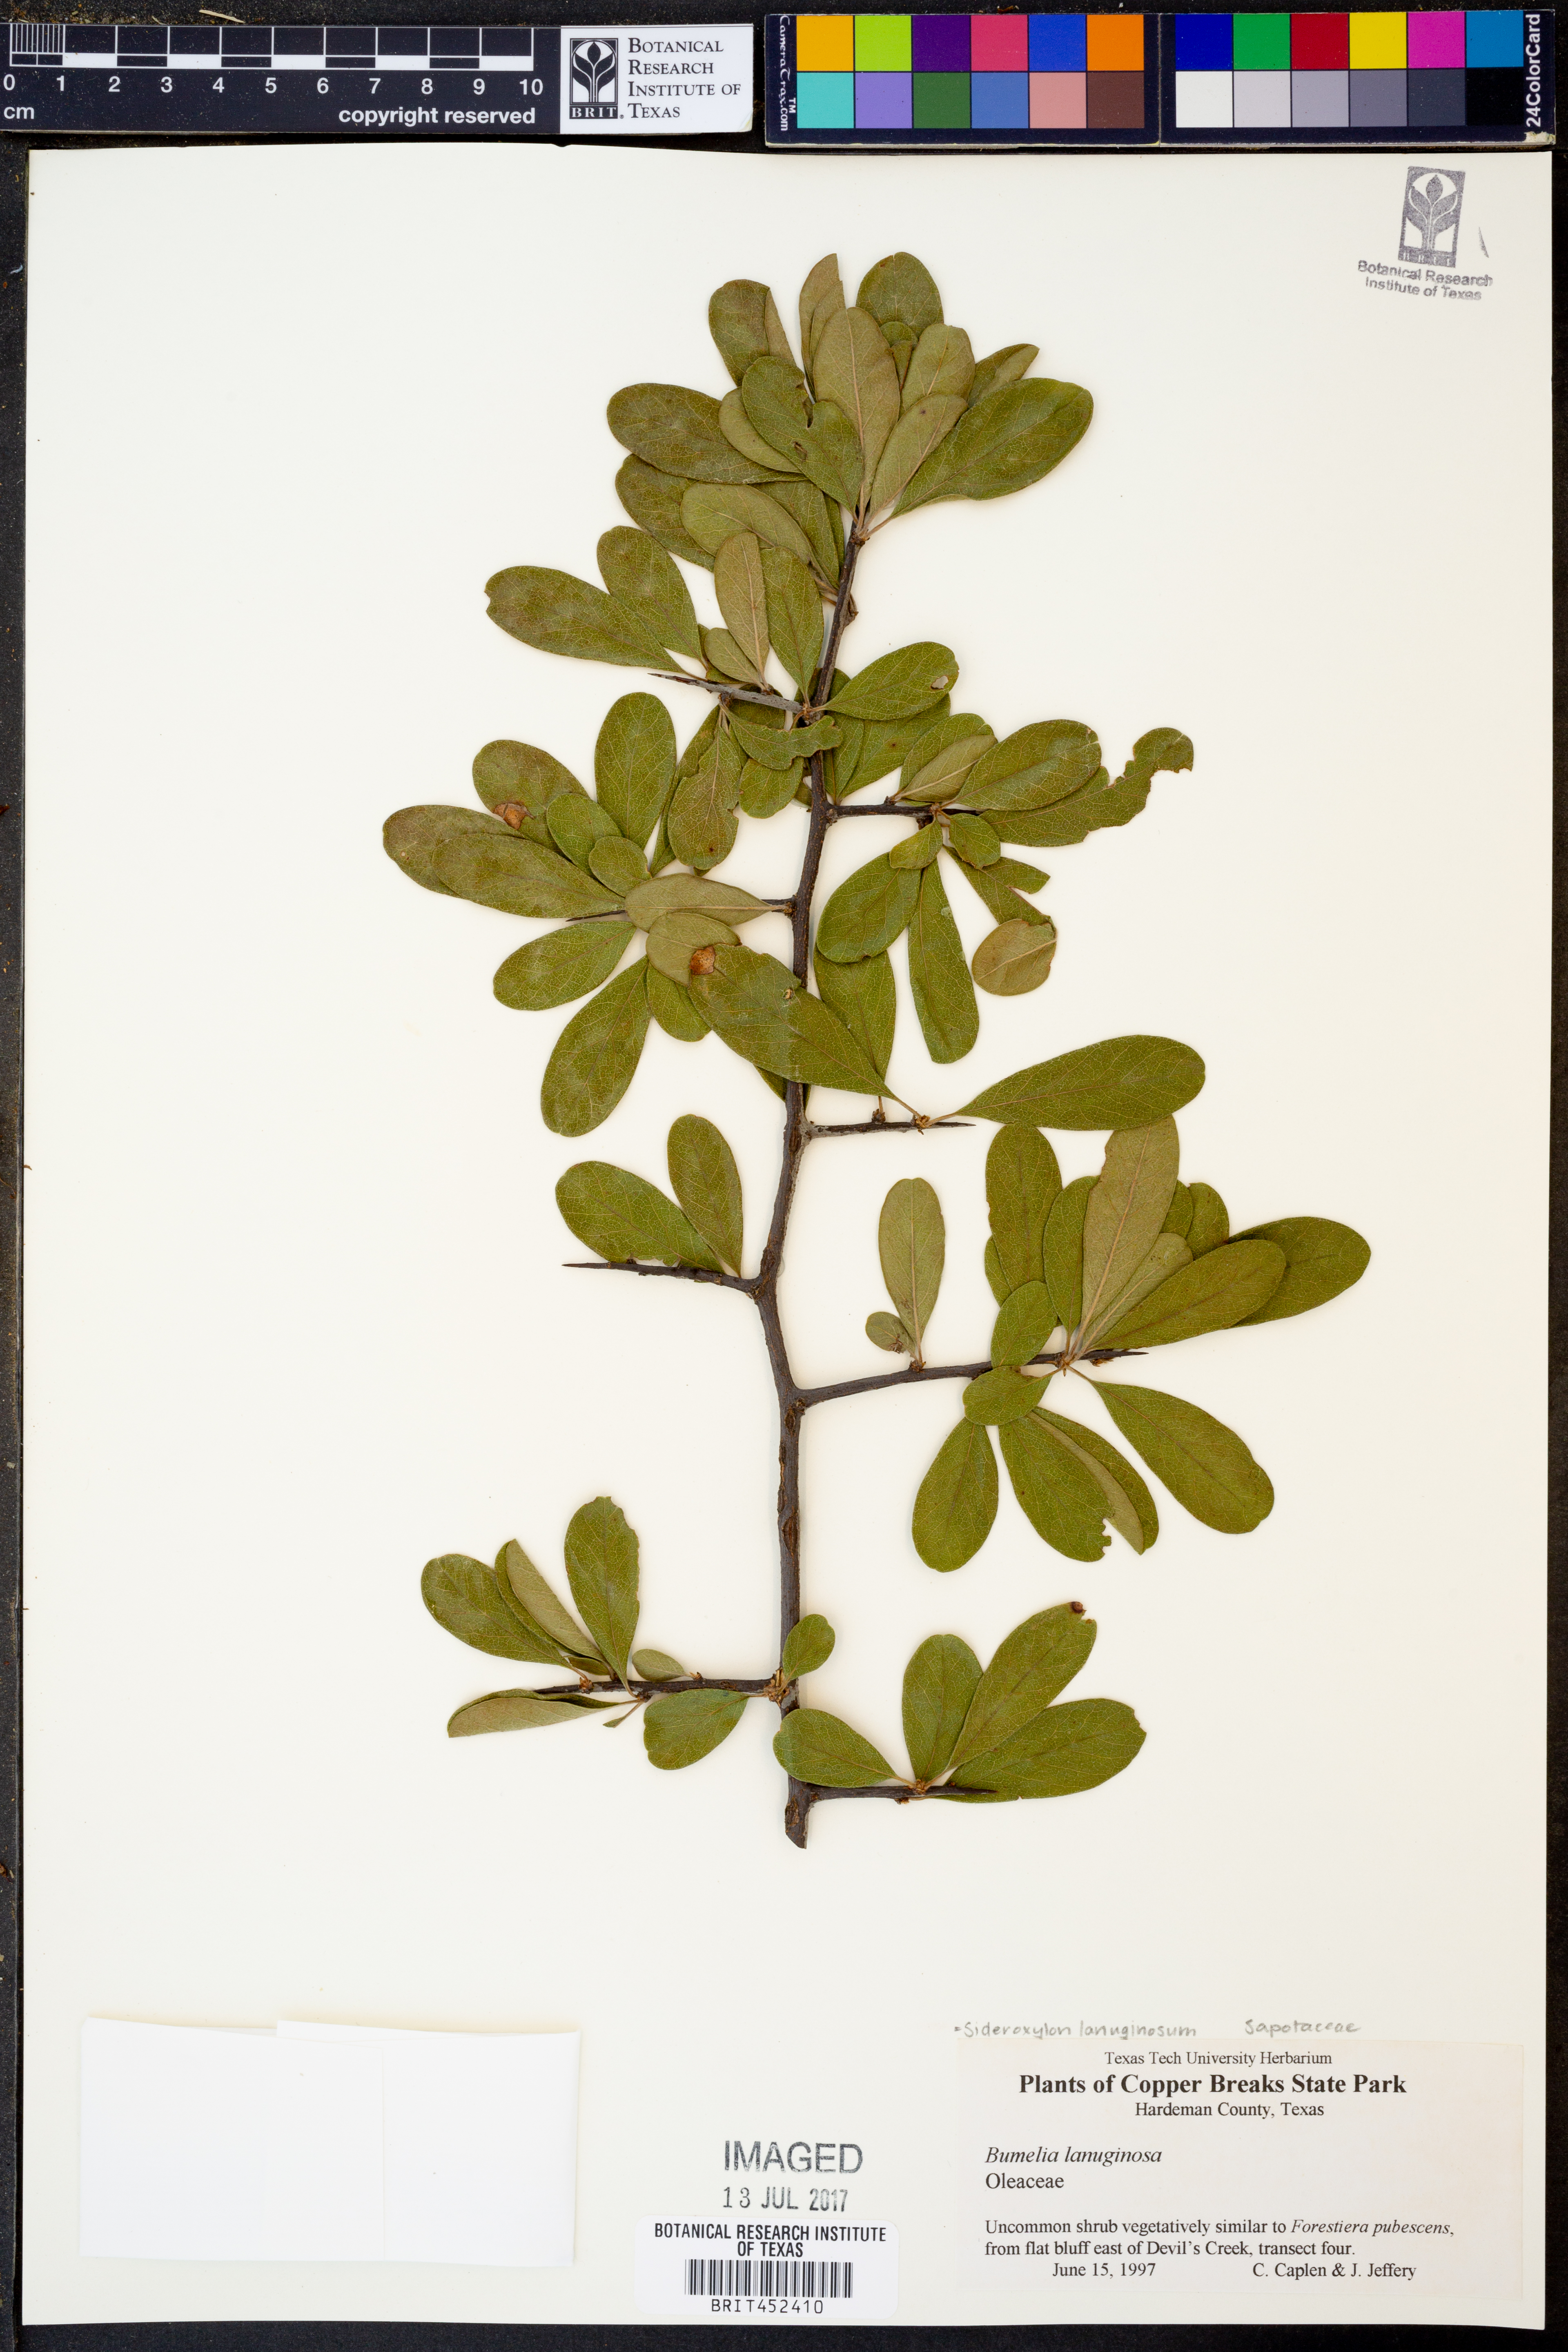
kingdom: Plantae
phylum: Tracheophyta
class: Magnoliopsida
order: Ericales
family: Sapotaceae
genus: Sideroxylon
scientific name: Sideroxylon lanuginosum
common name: Chittamwood
